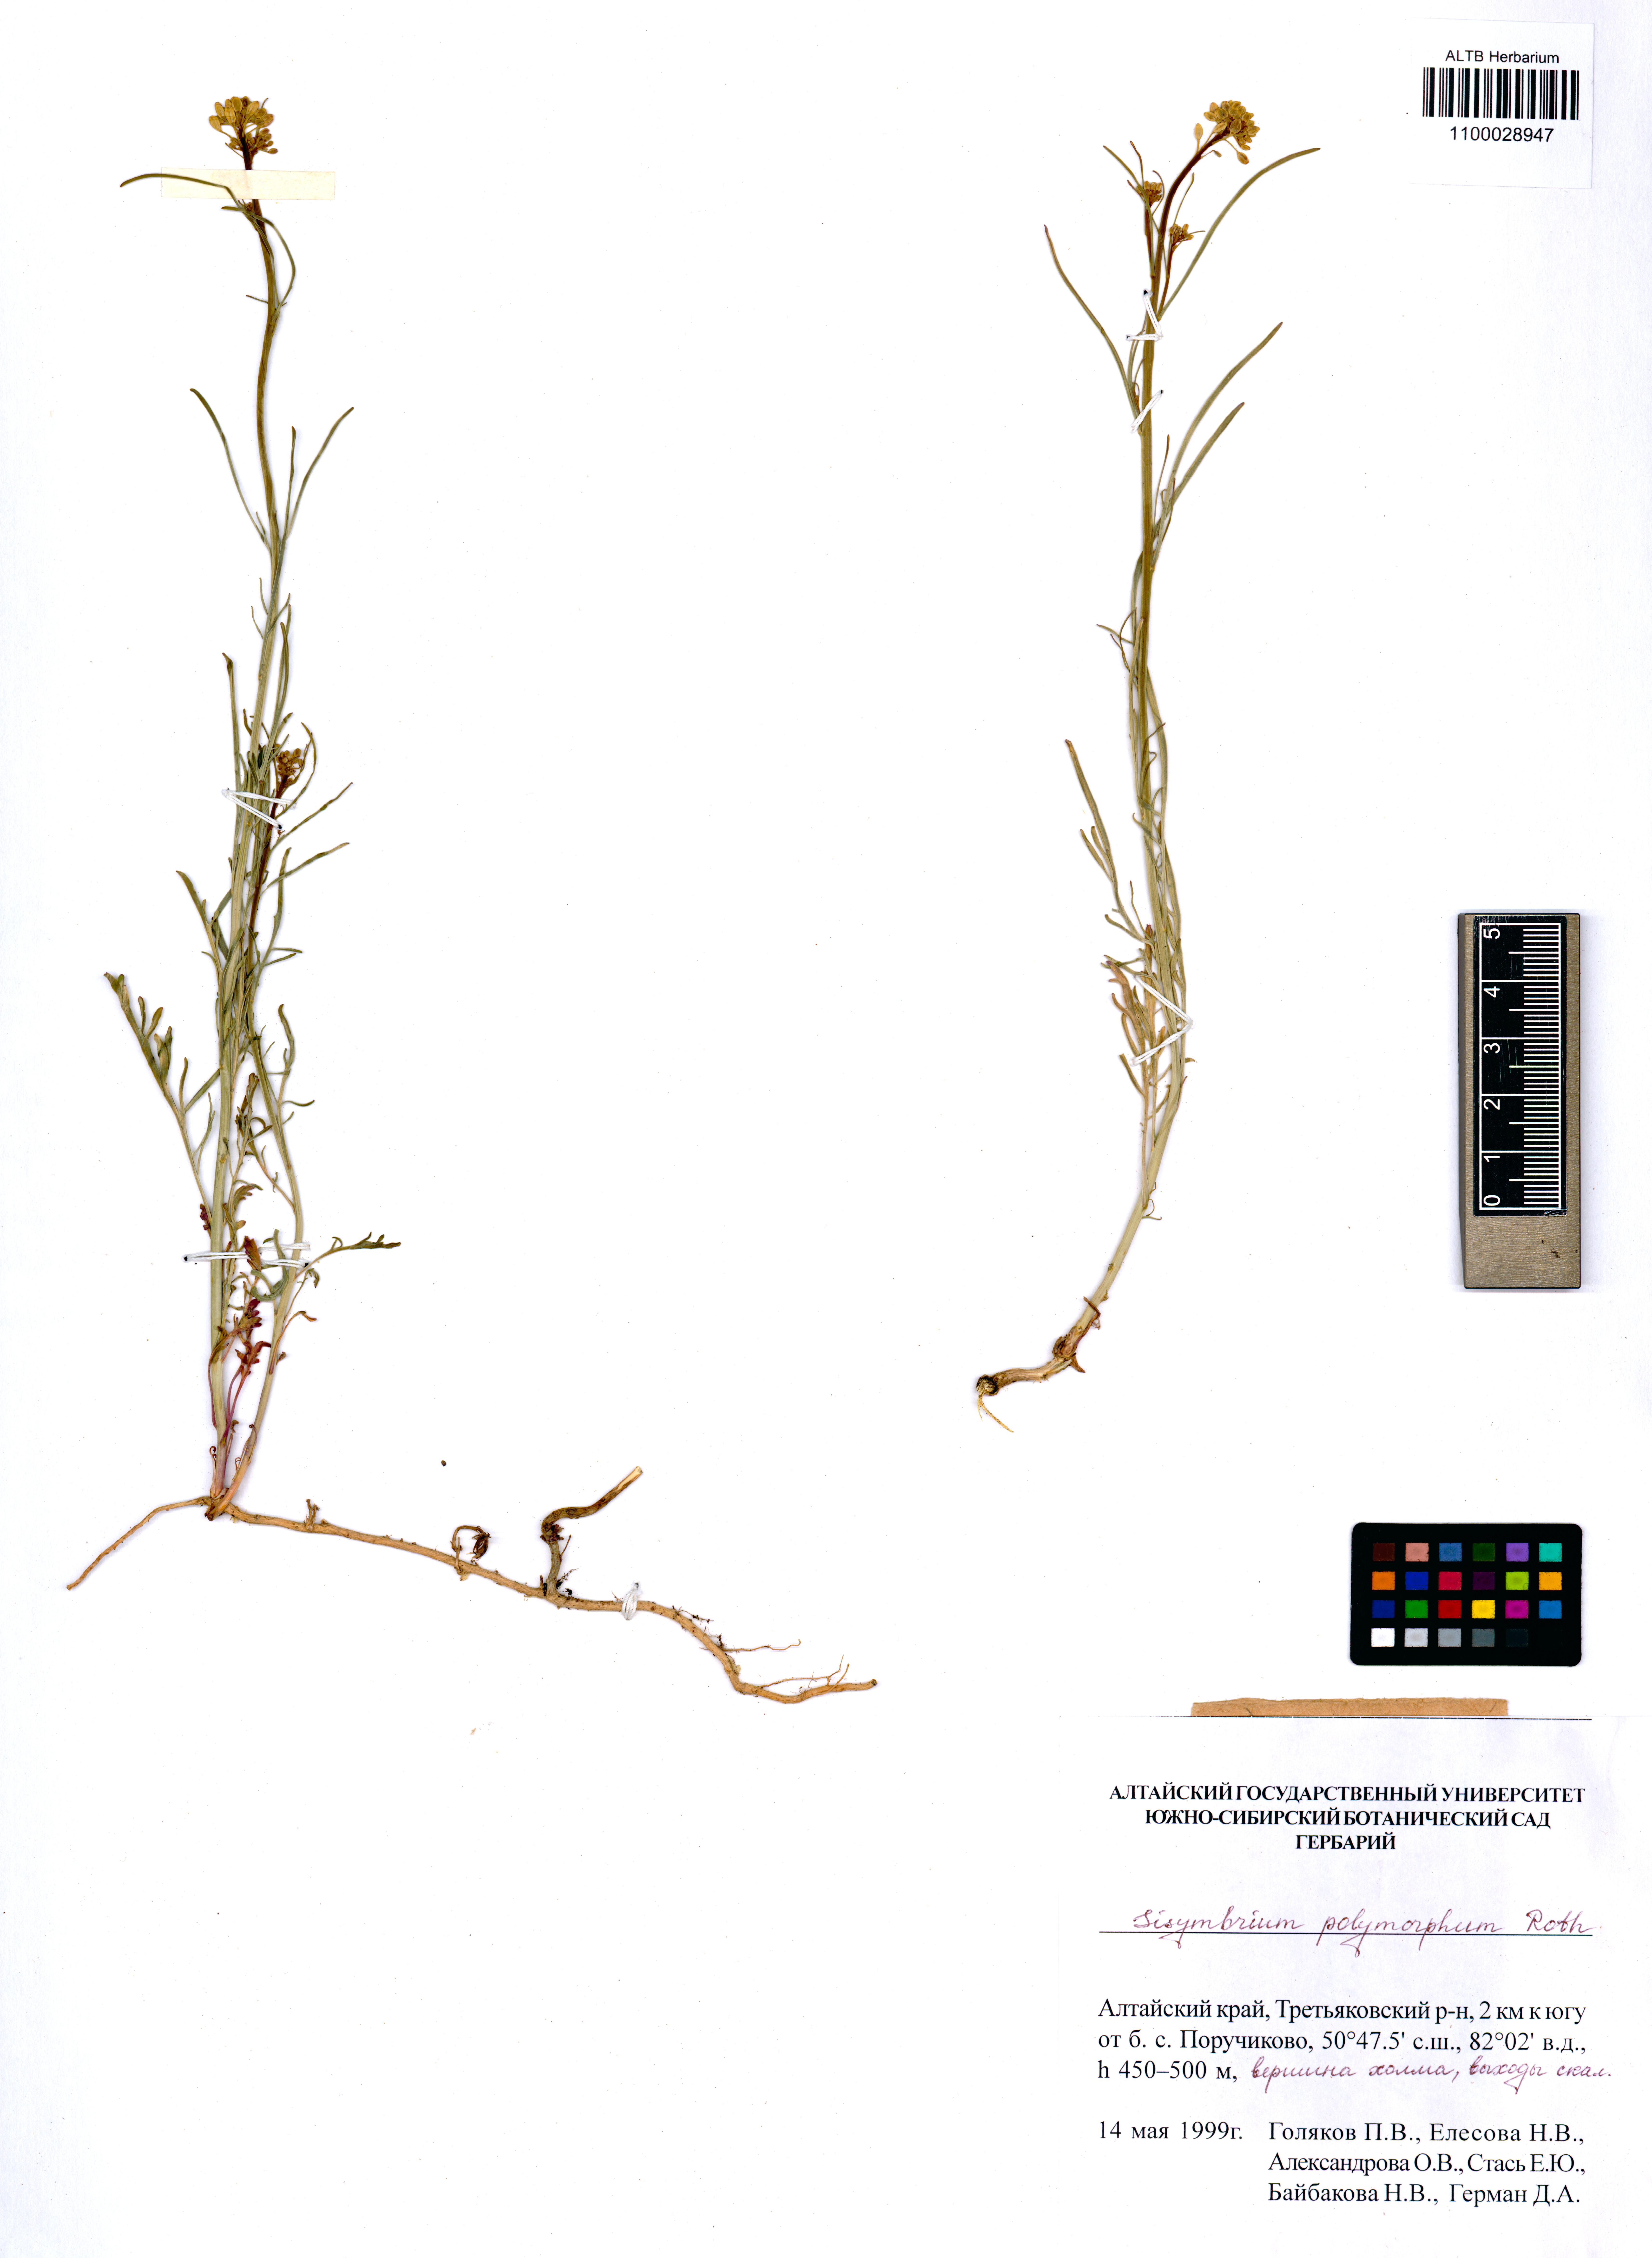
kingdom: Plantae
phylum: Tracheophyta
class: Magnoliopsida
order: Brassicales
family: Brassicaceae
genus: Sisymbrium
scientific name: Sisymbrium polymorphum
